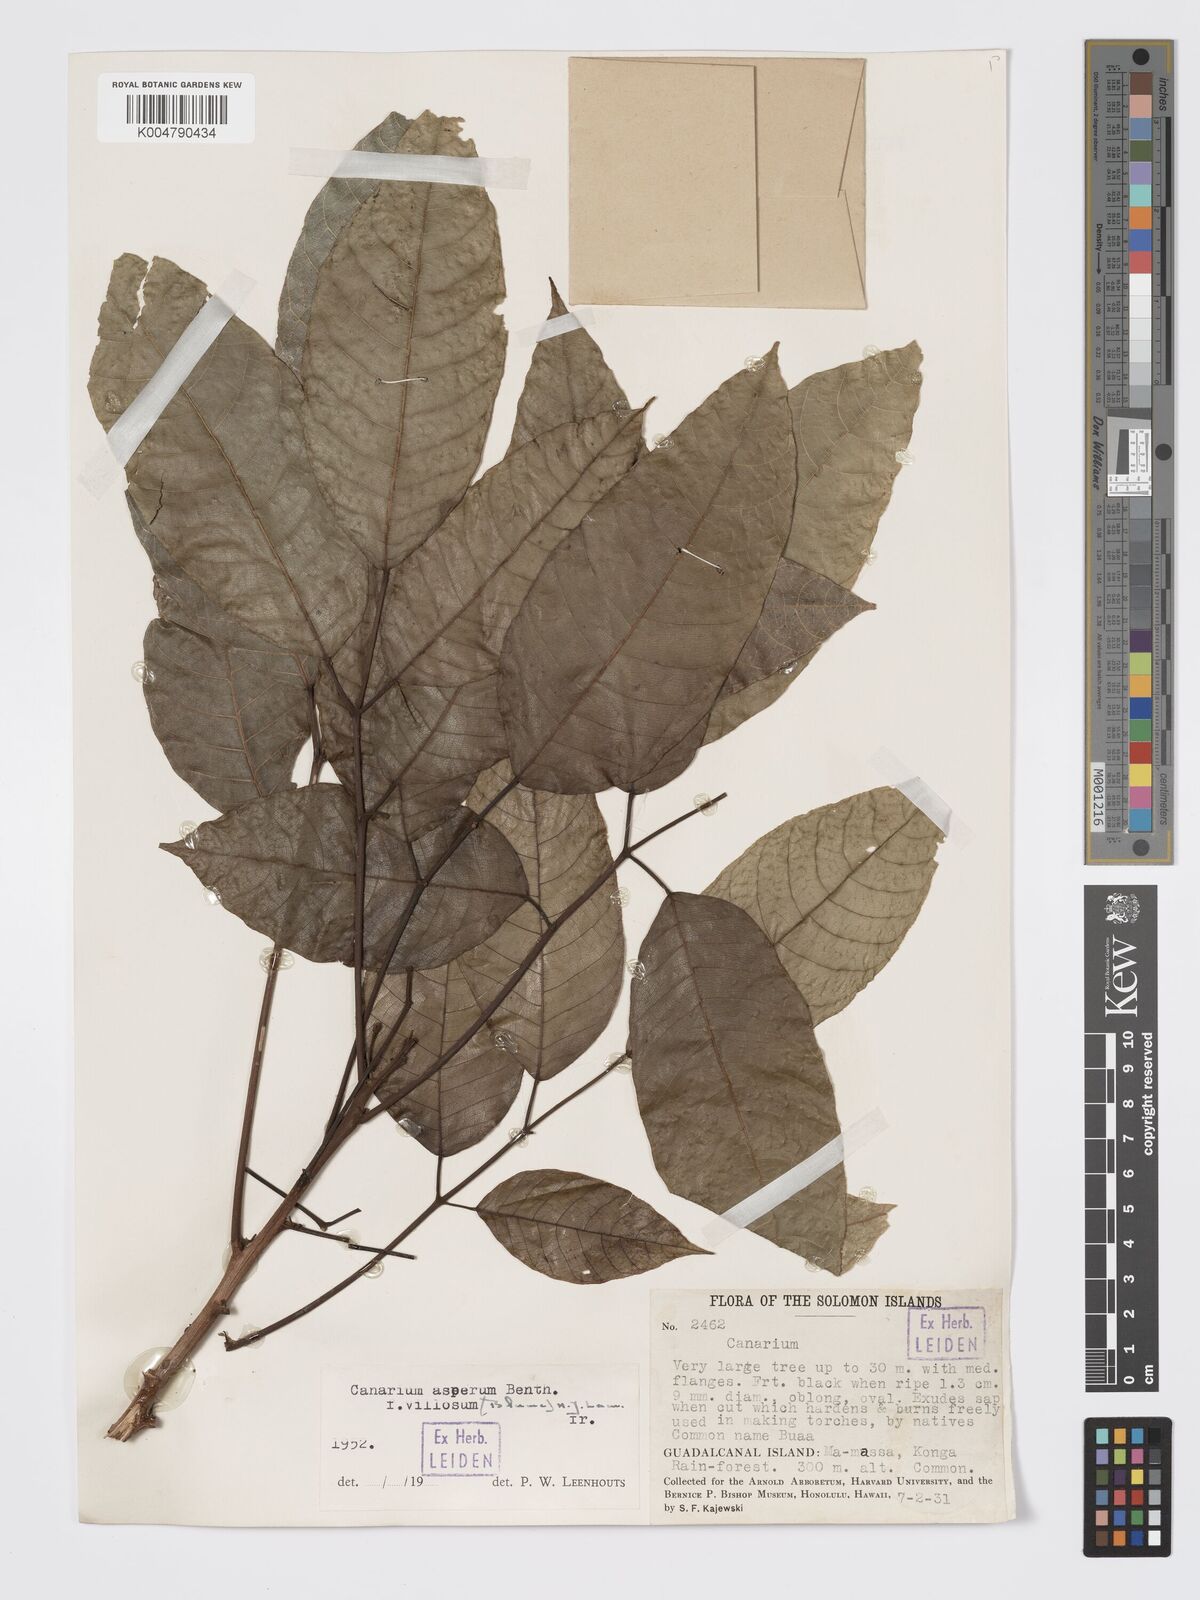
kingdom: Plantae
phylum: Tracheophyta
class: Magnoliopsida
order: Sapindales
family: Burseraceae
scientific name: Burseraceae
